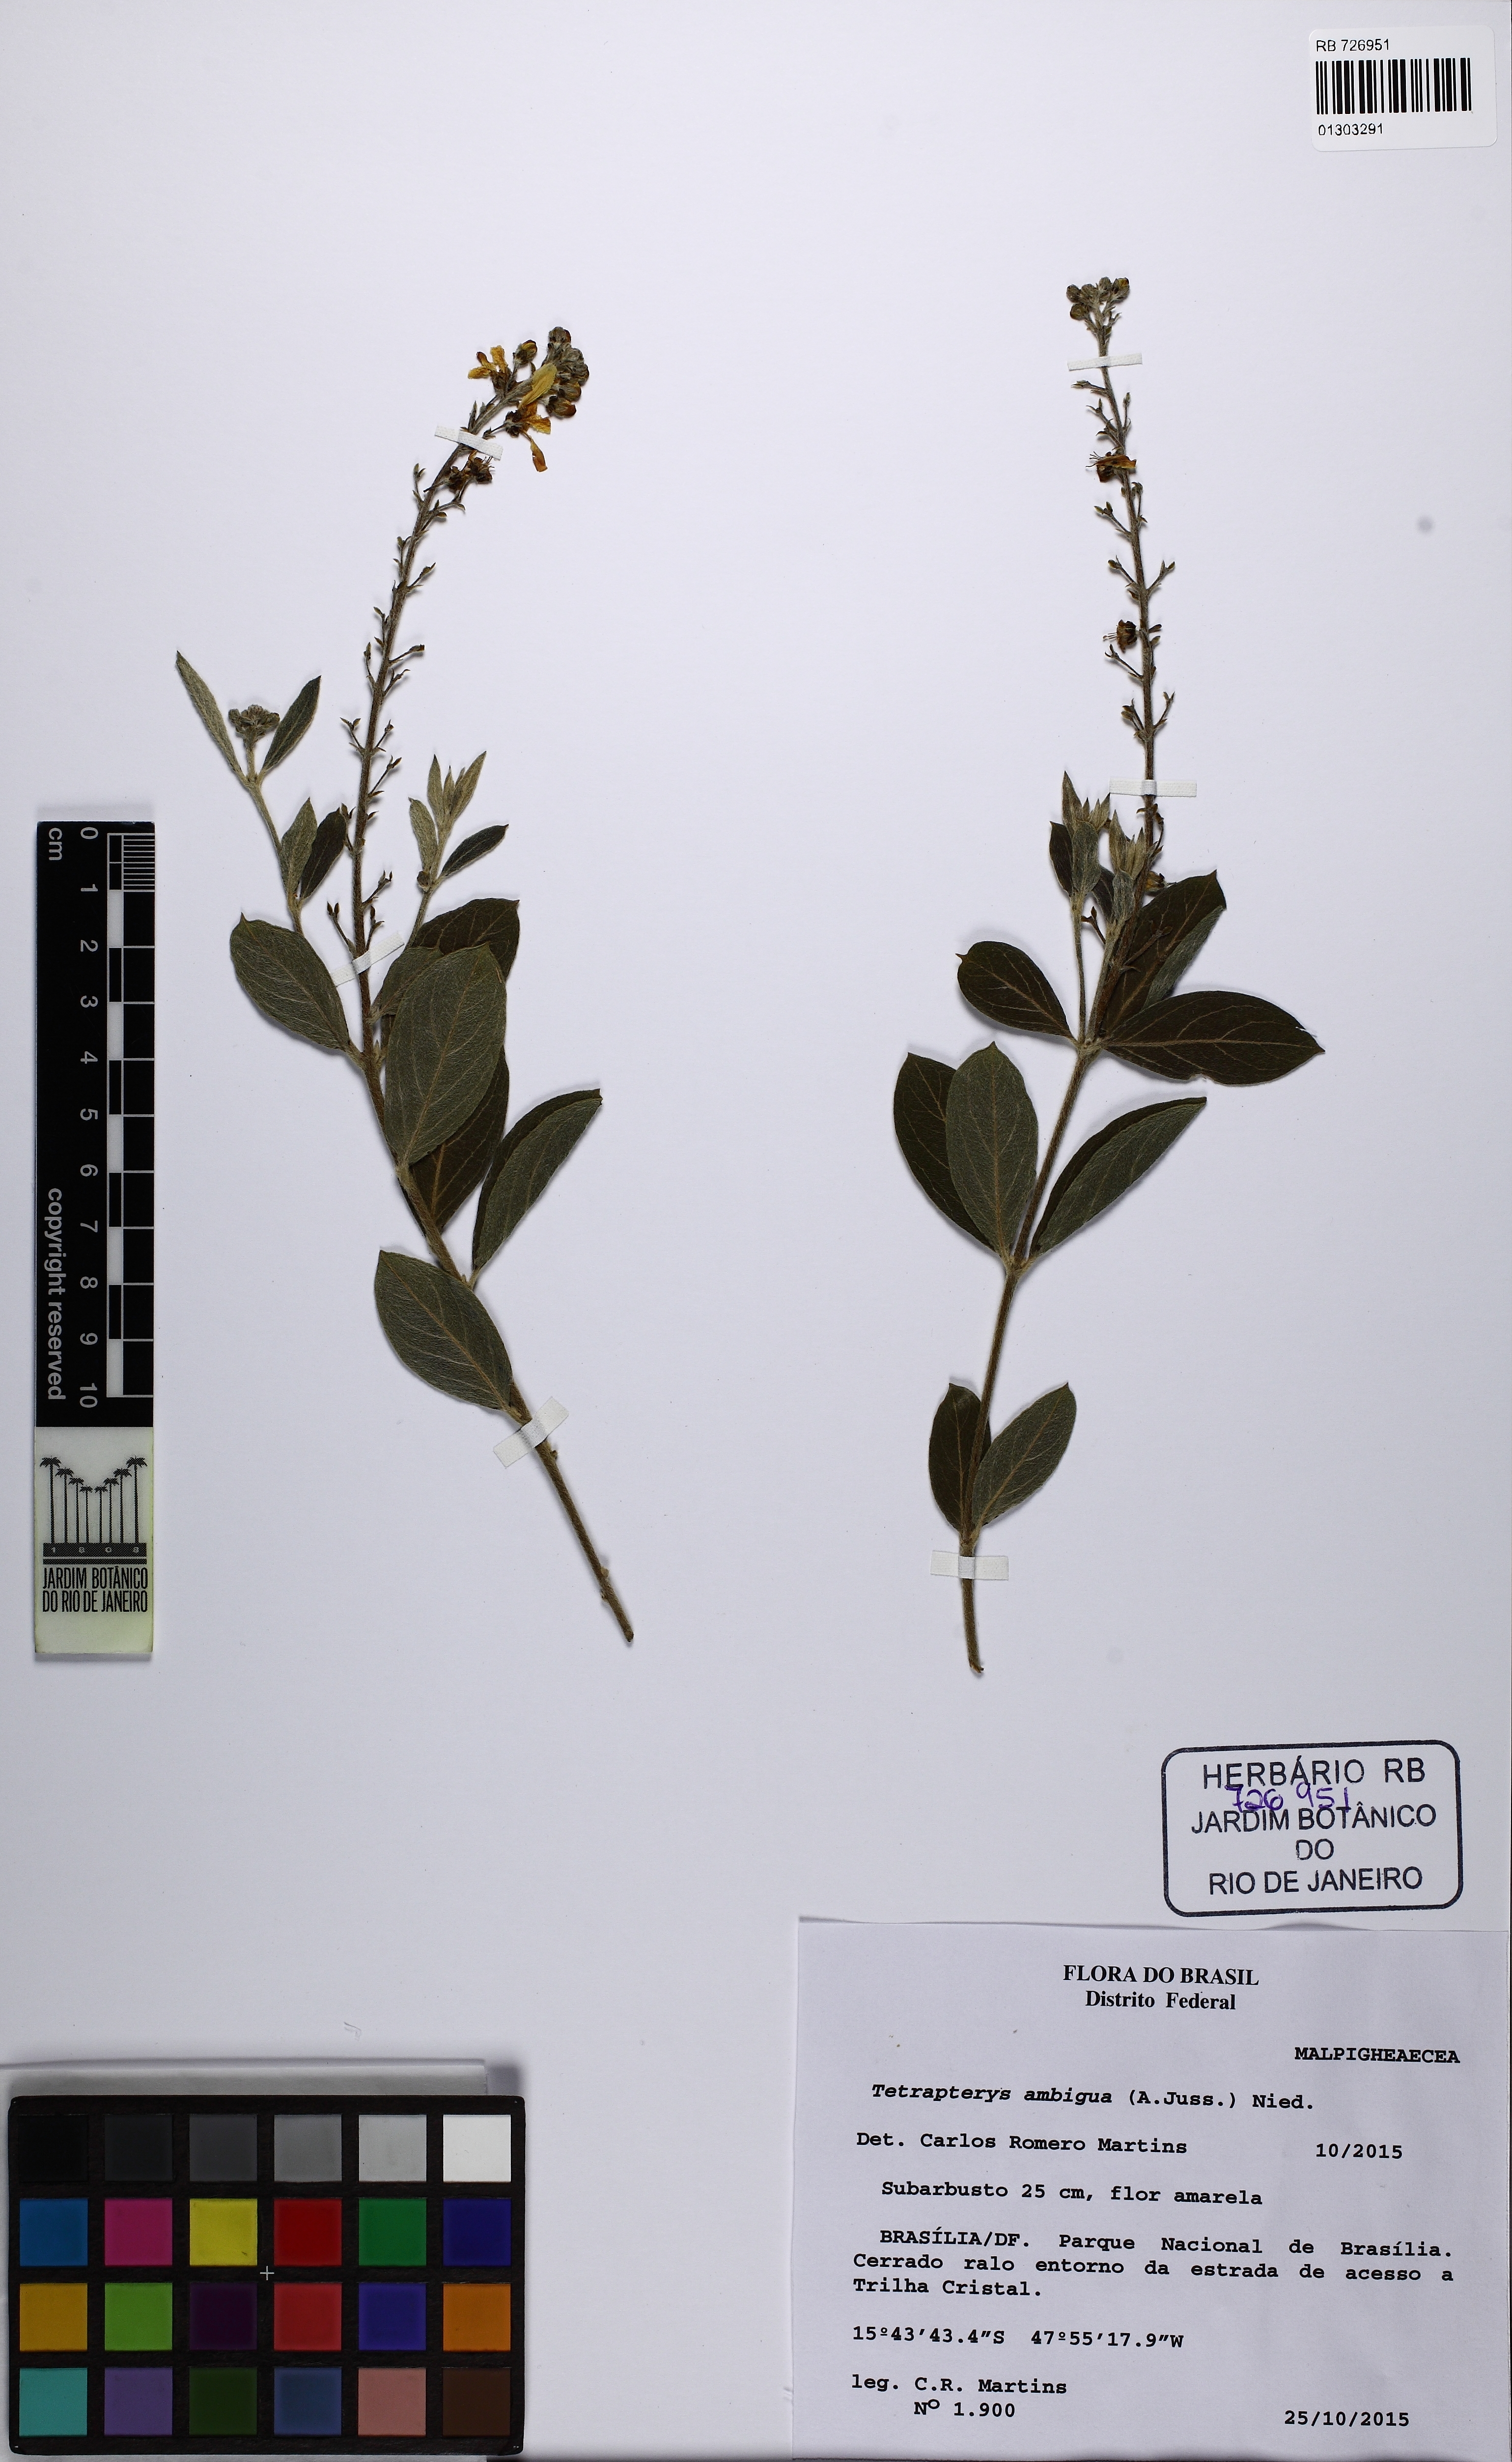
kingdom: Plantae
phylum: Tracheophyta
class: Magnoliopsida
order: Malpighiales
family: Malpighiaceae
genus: Glicophyllum
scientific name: Glicophyllum ambiguum
